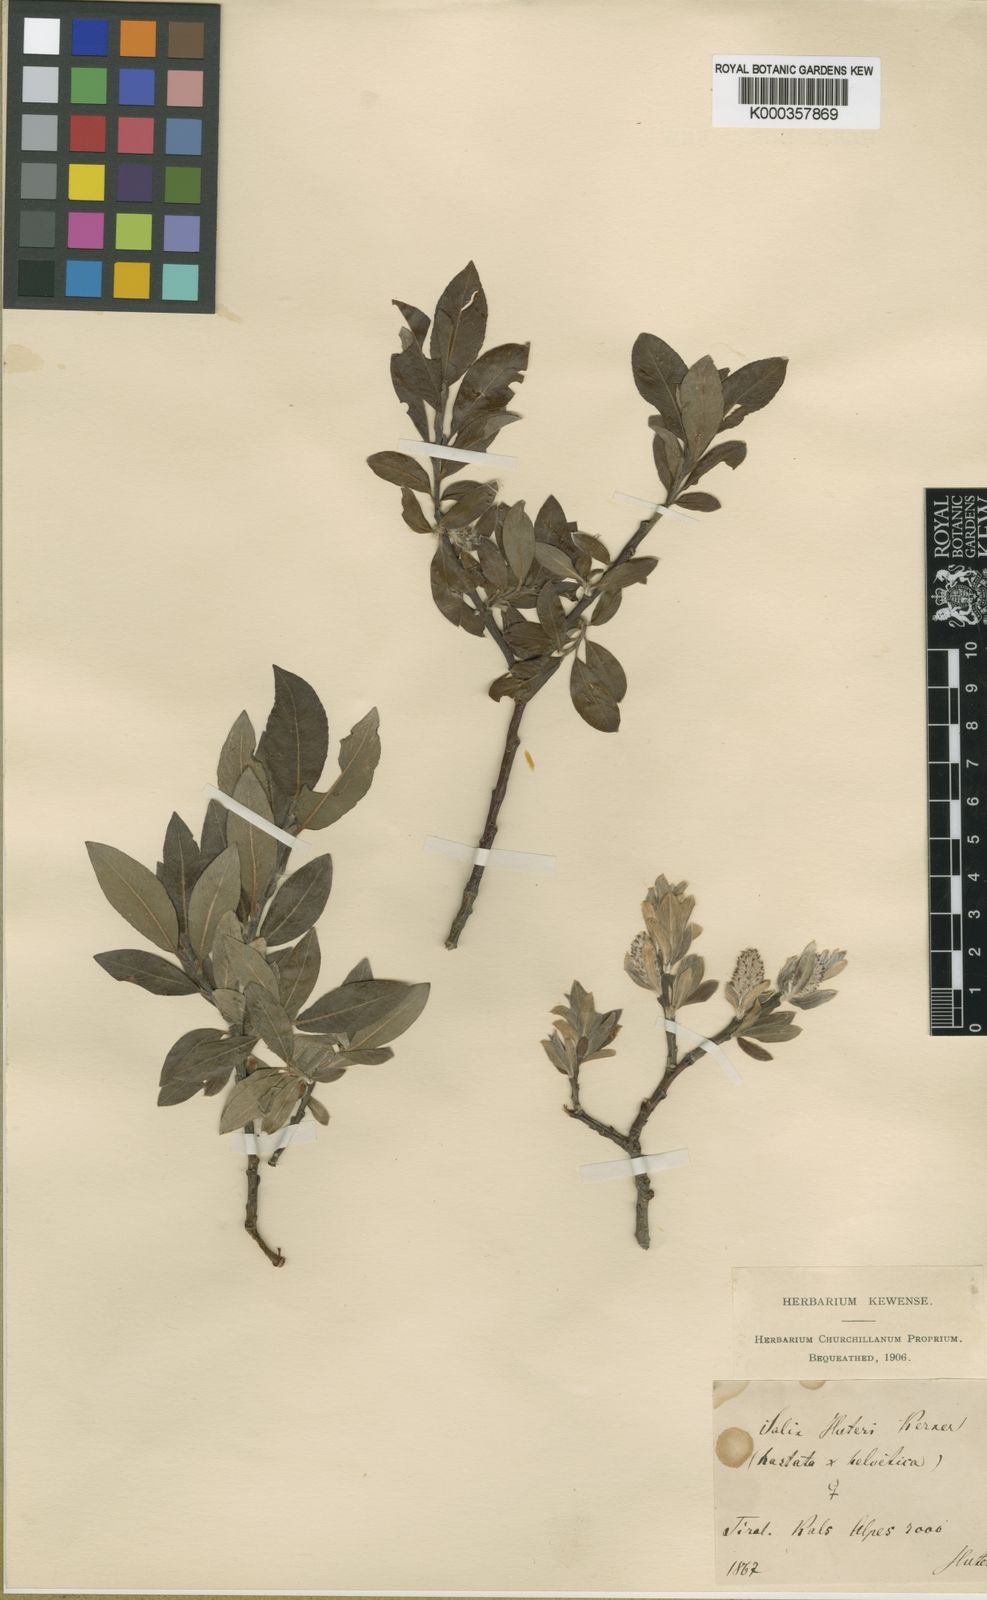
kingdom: Plantae
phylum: Tracheophyta
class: Magnoliopsida
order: Malpighiales
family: Salicaceae
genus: Salix
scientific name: Salix
